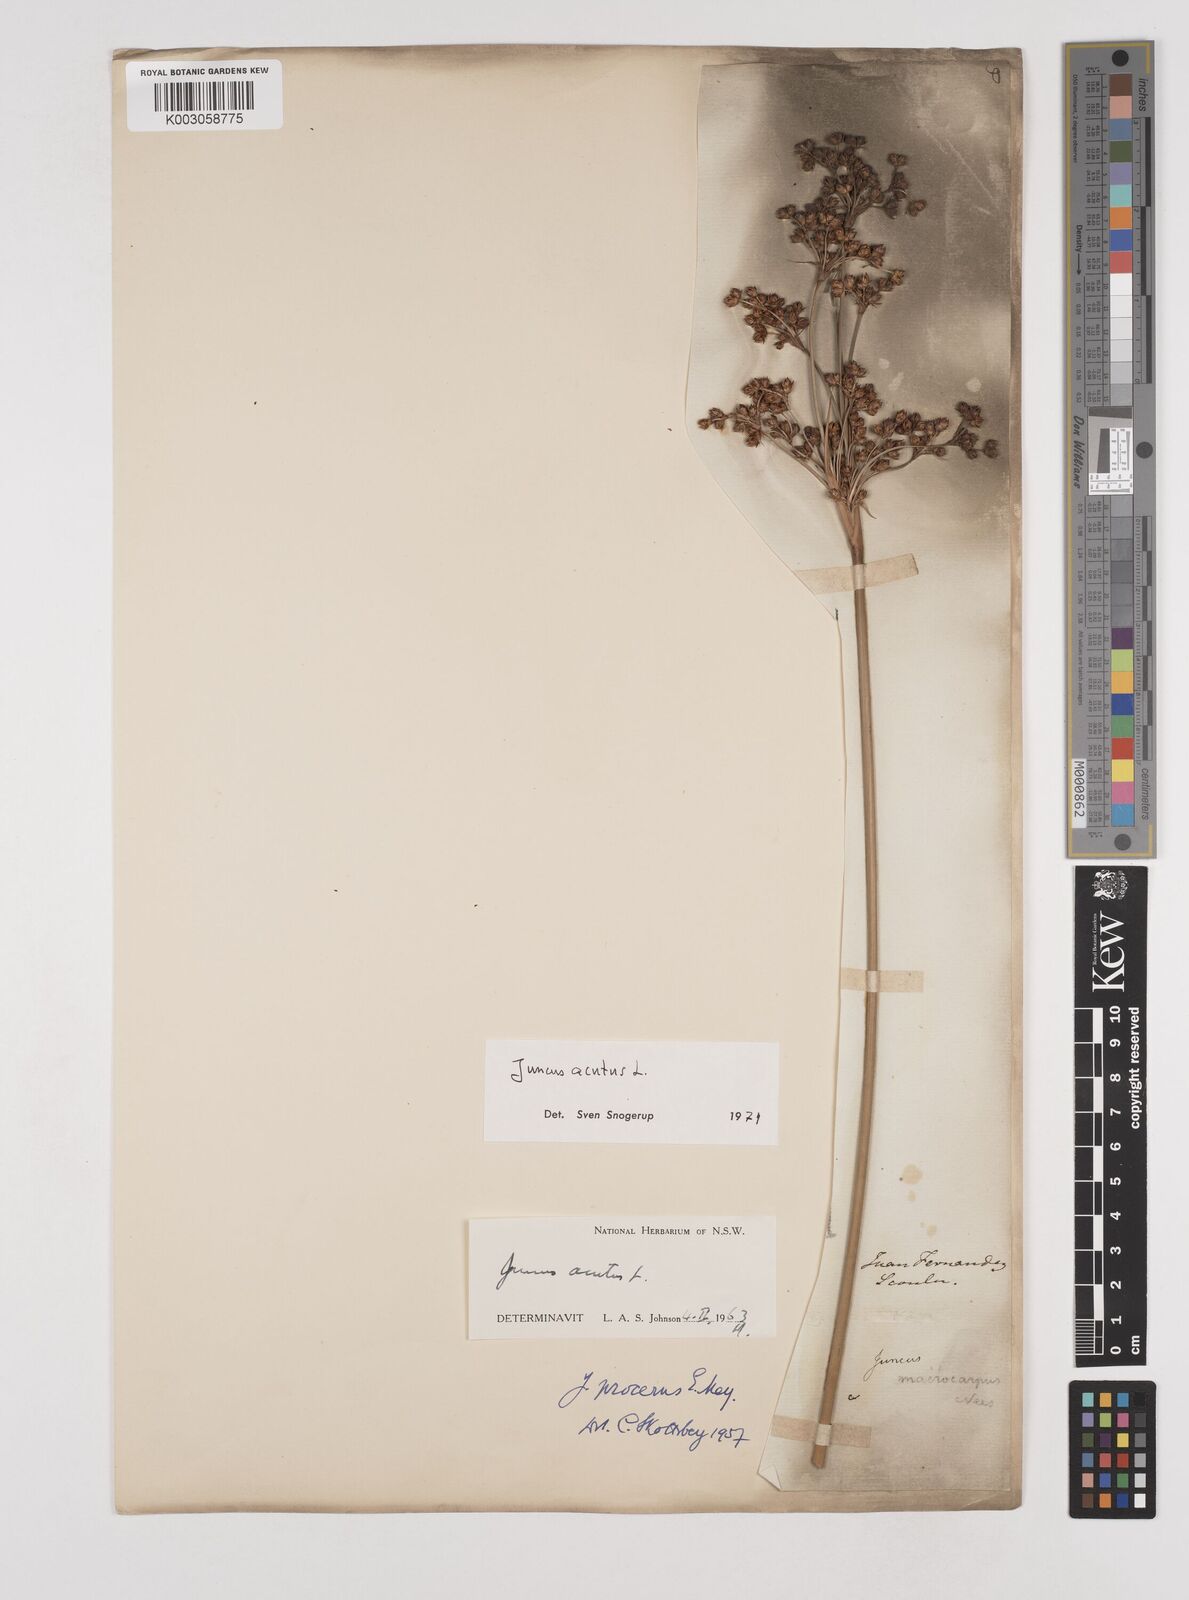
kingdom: Plantae
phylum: Tracheophyta
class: Liliopsida
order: Poales
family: Juncaceae
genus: Juncus
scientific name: Juncus acutus
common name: Sharp rush
